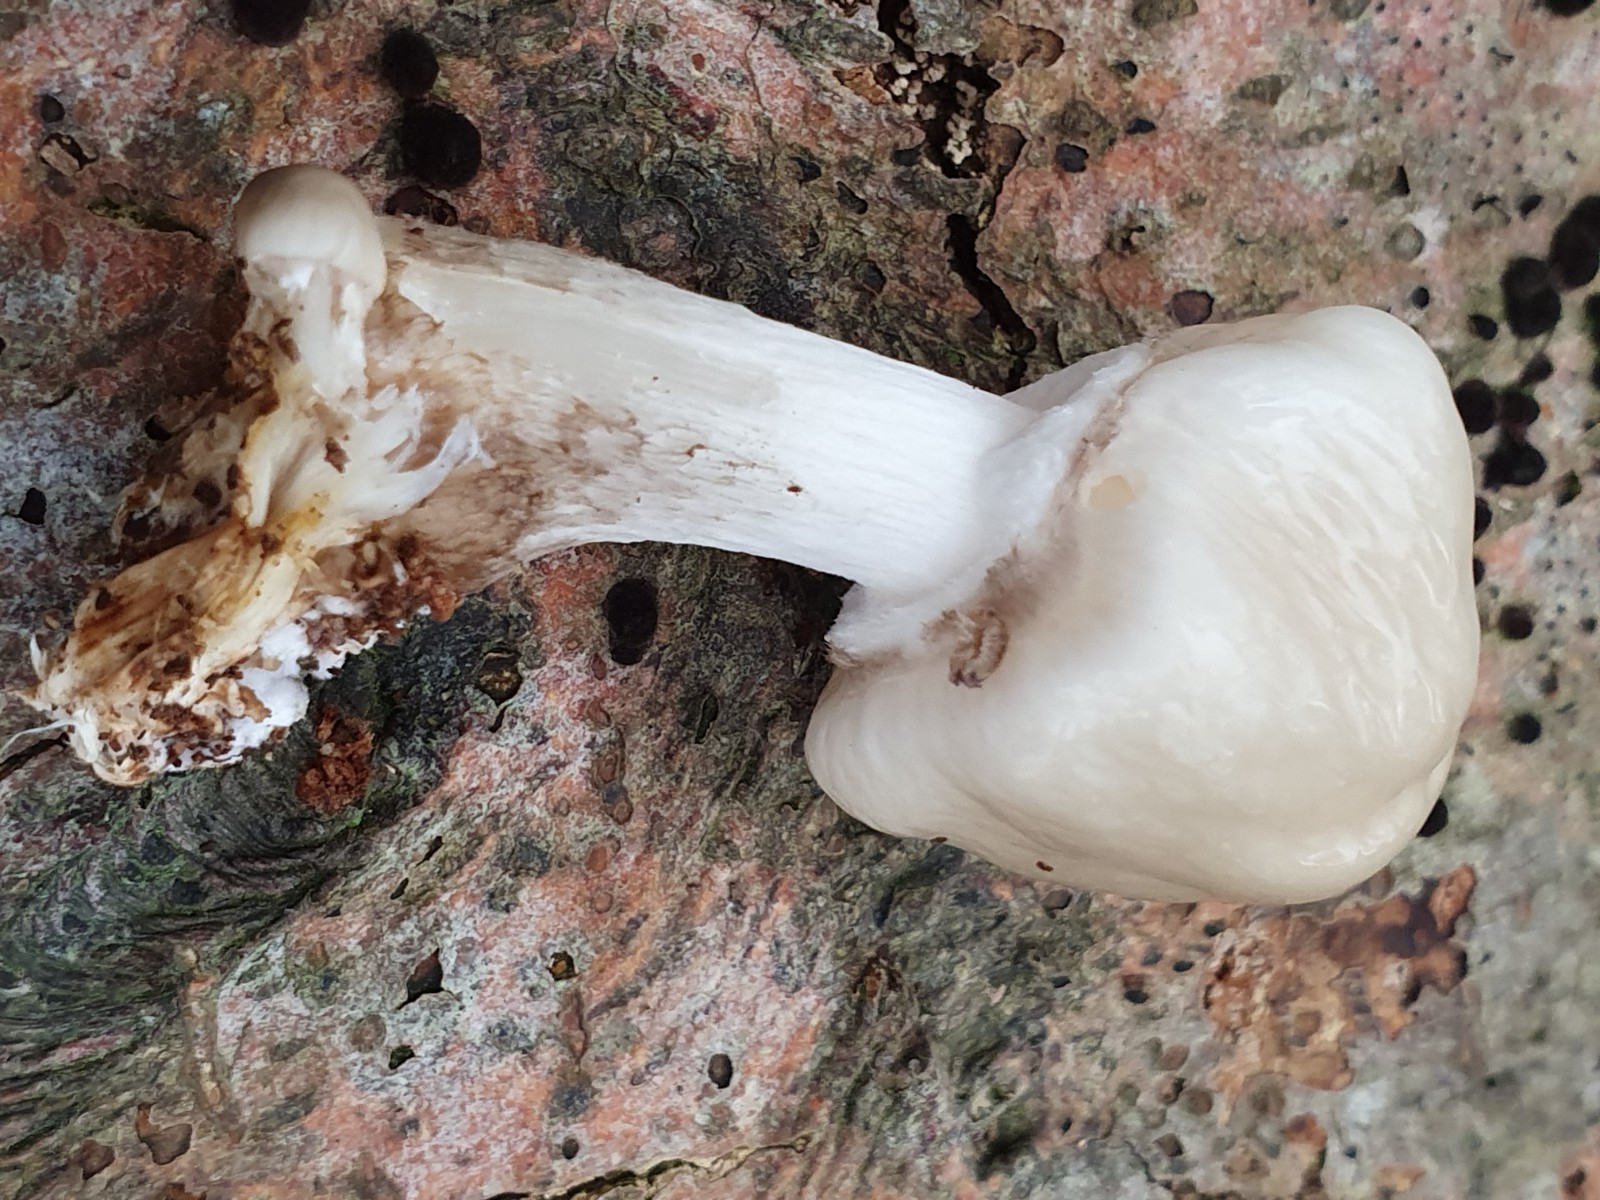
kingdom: Fungi
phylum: Basidiomycota
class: Agaricomycetes
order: Agaricales
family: Physalacriaceae
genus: Mucidula
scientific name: Mucidula mucida
